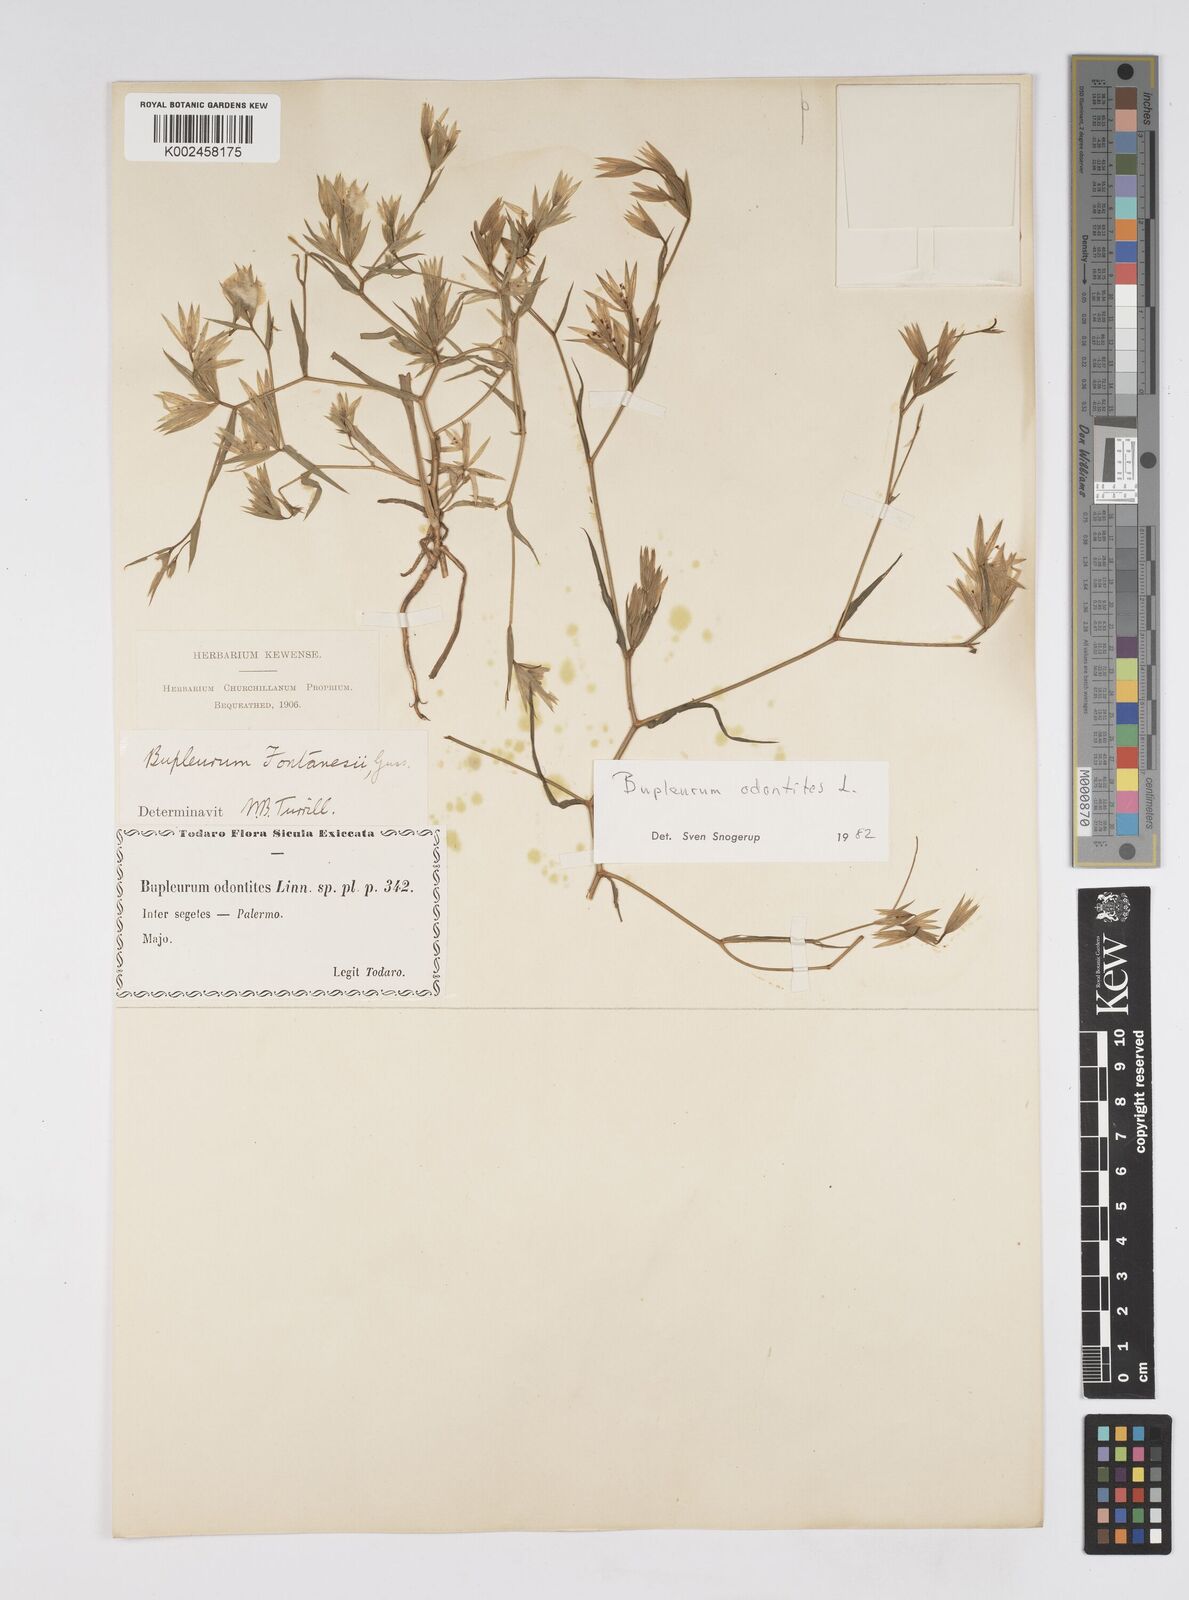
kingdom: Plantae
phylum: Tracheophyta
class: Magnoliopsida
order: Apiales
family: Apiaceae
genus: Bupleurum
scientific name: Bupleurum odontites
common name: Narrowleaf thorow wax
